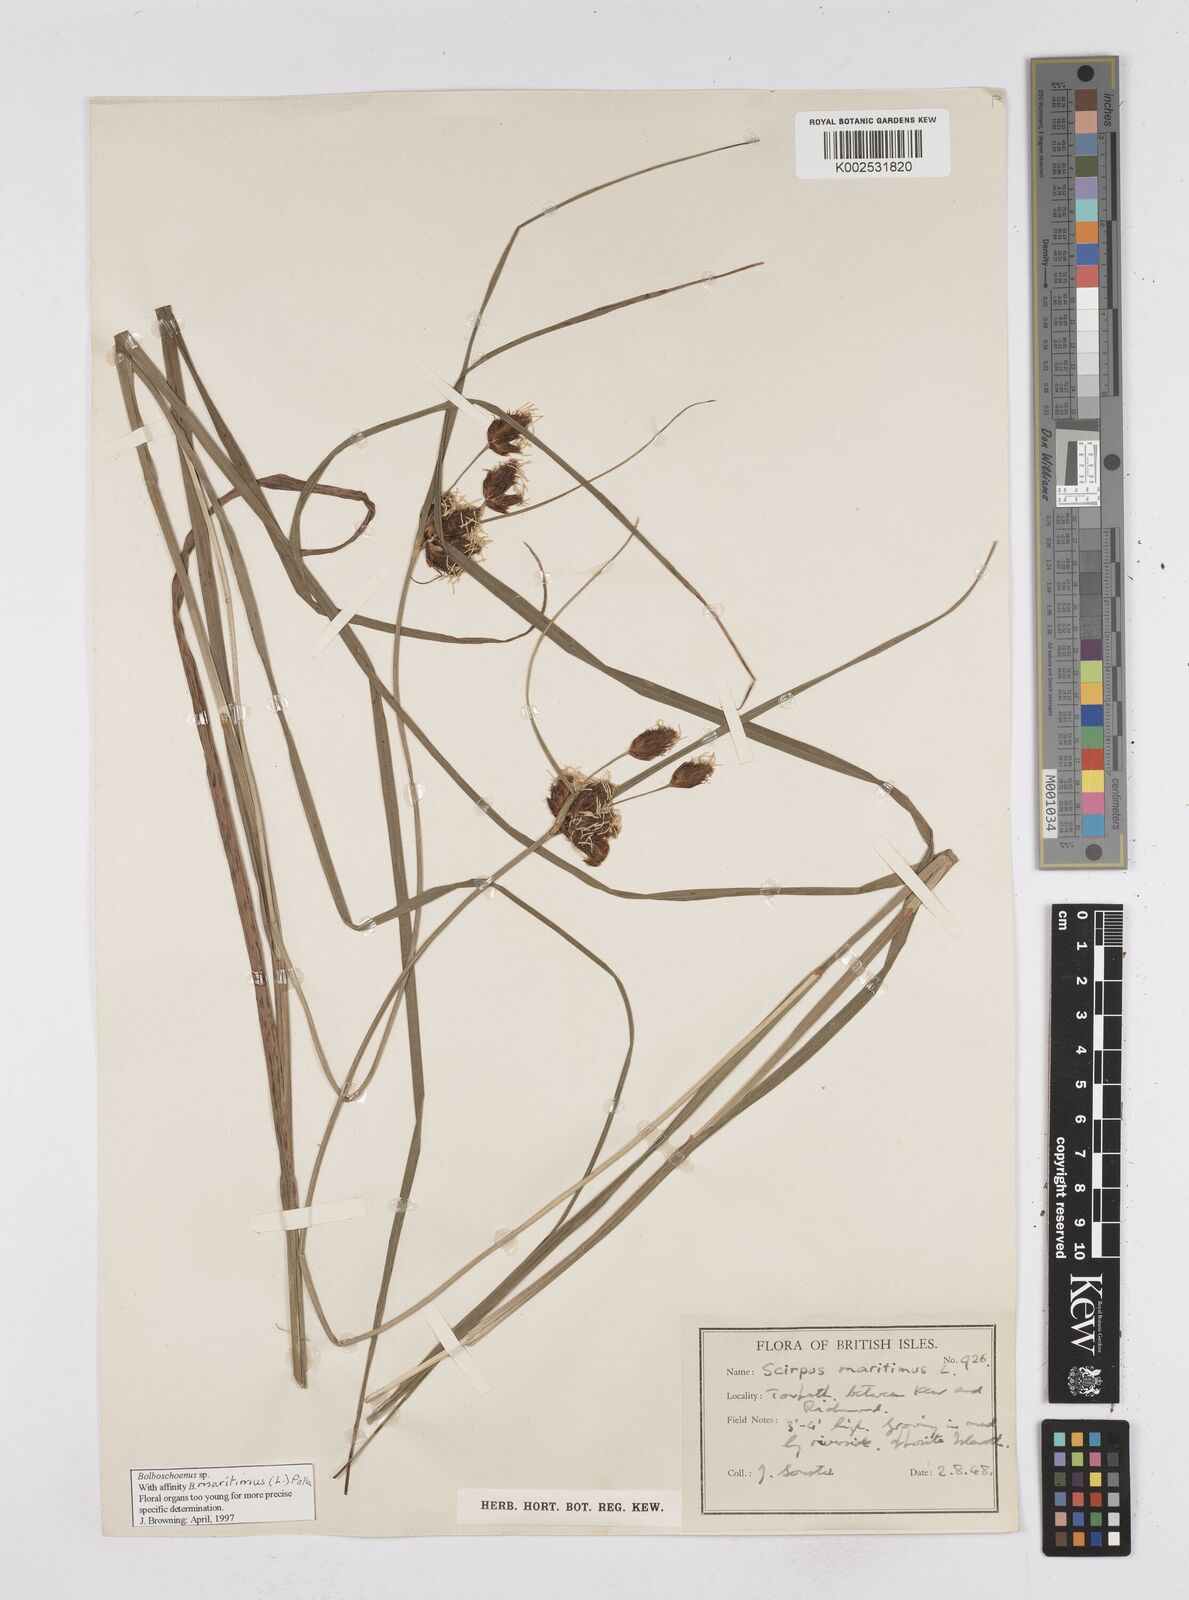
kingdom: Plantae
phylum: Tracheophyta
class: Liliopsida
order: Poales
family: Cyperaceae
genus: Bolboschoenus
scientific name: Bolboschoenus maritimus
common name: Sea club-rush
